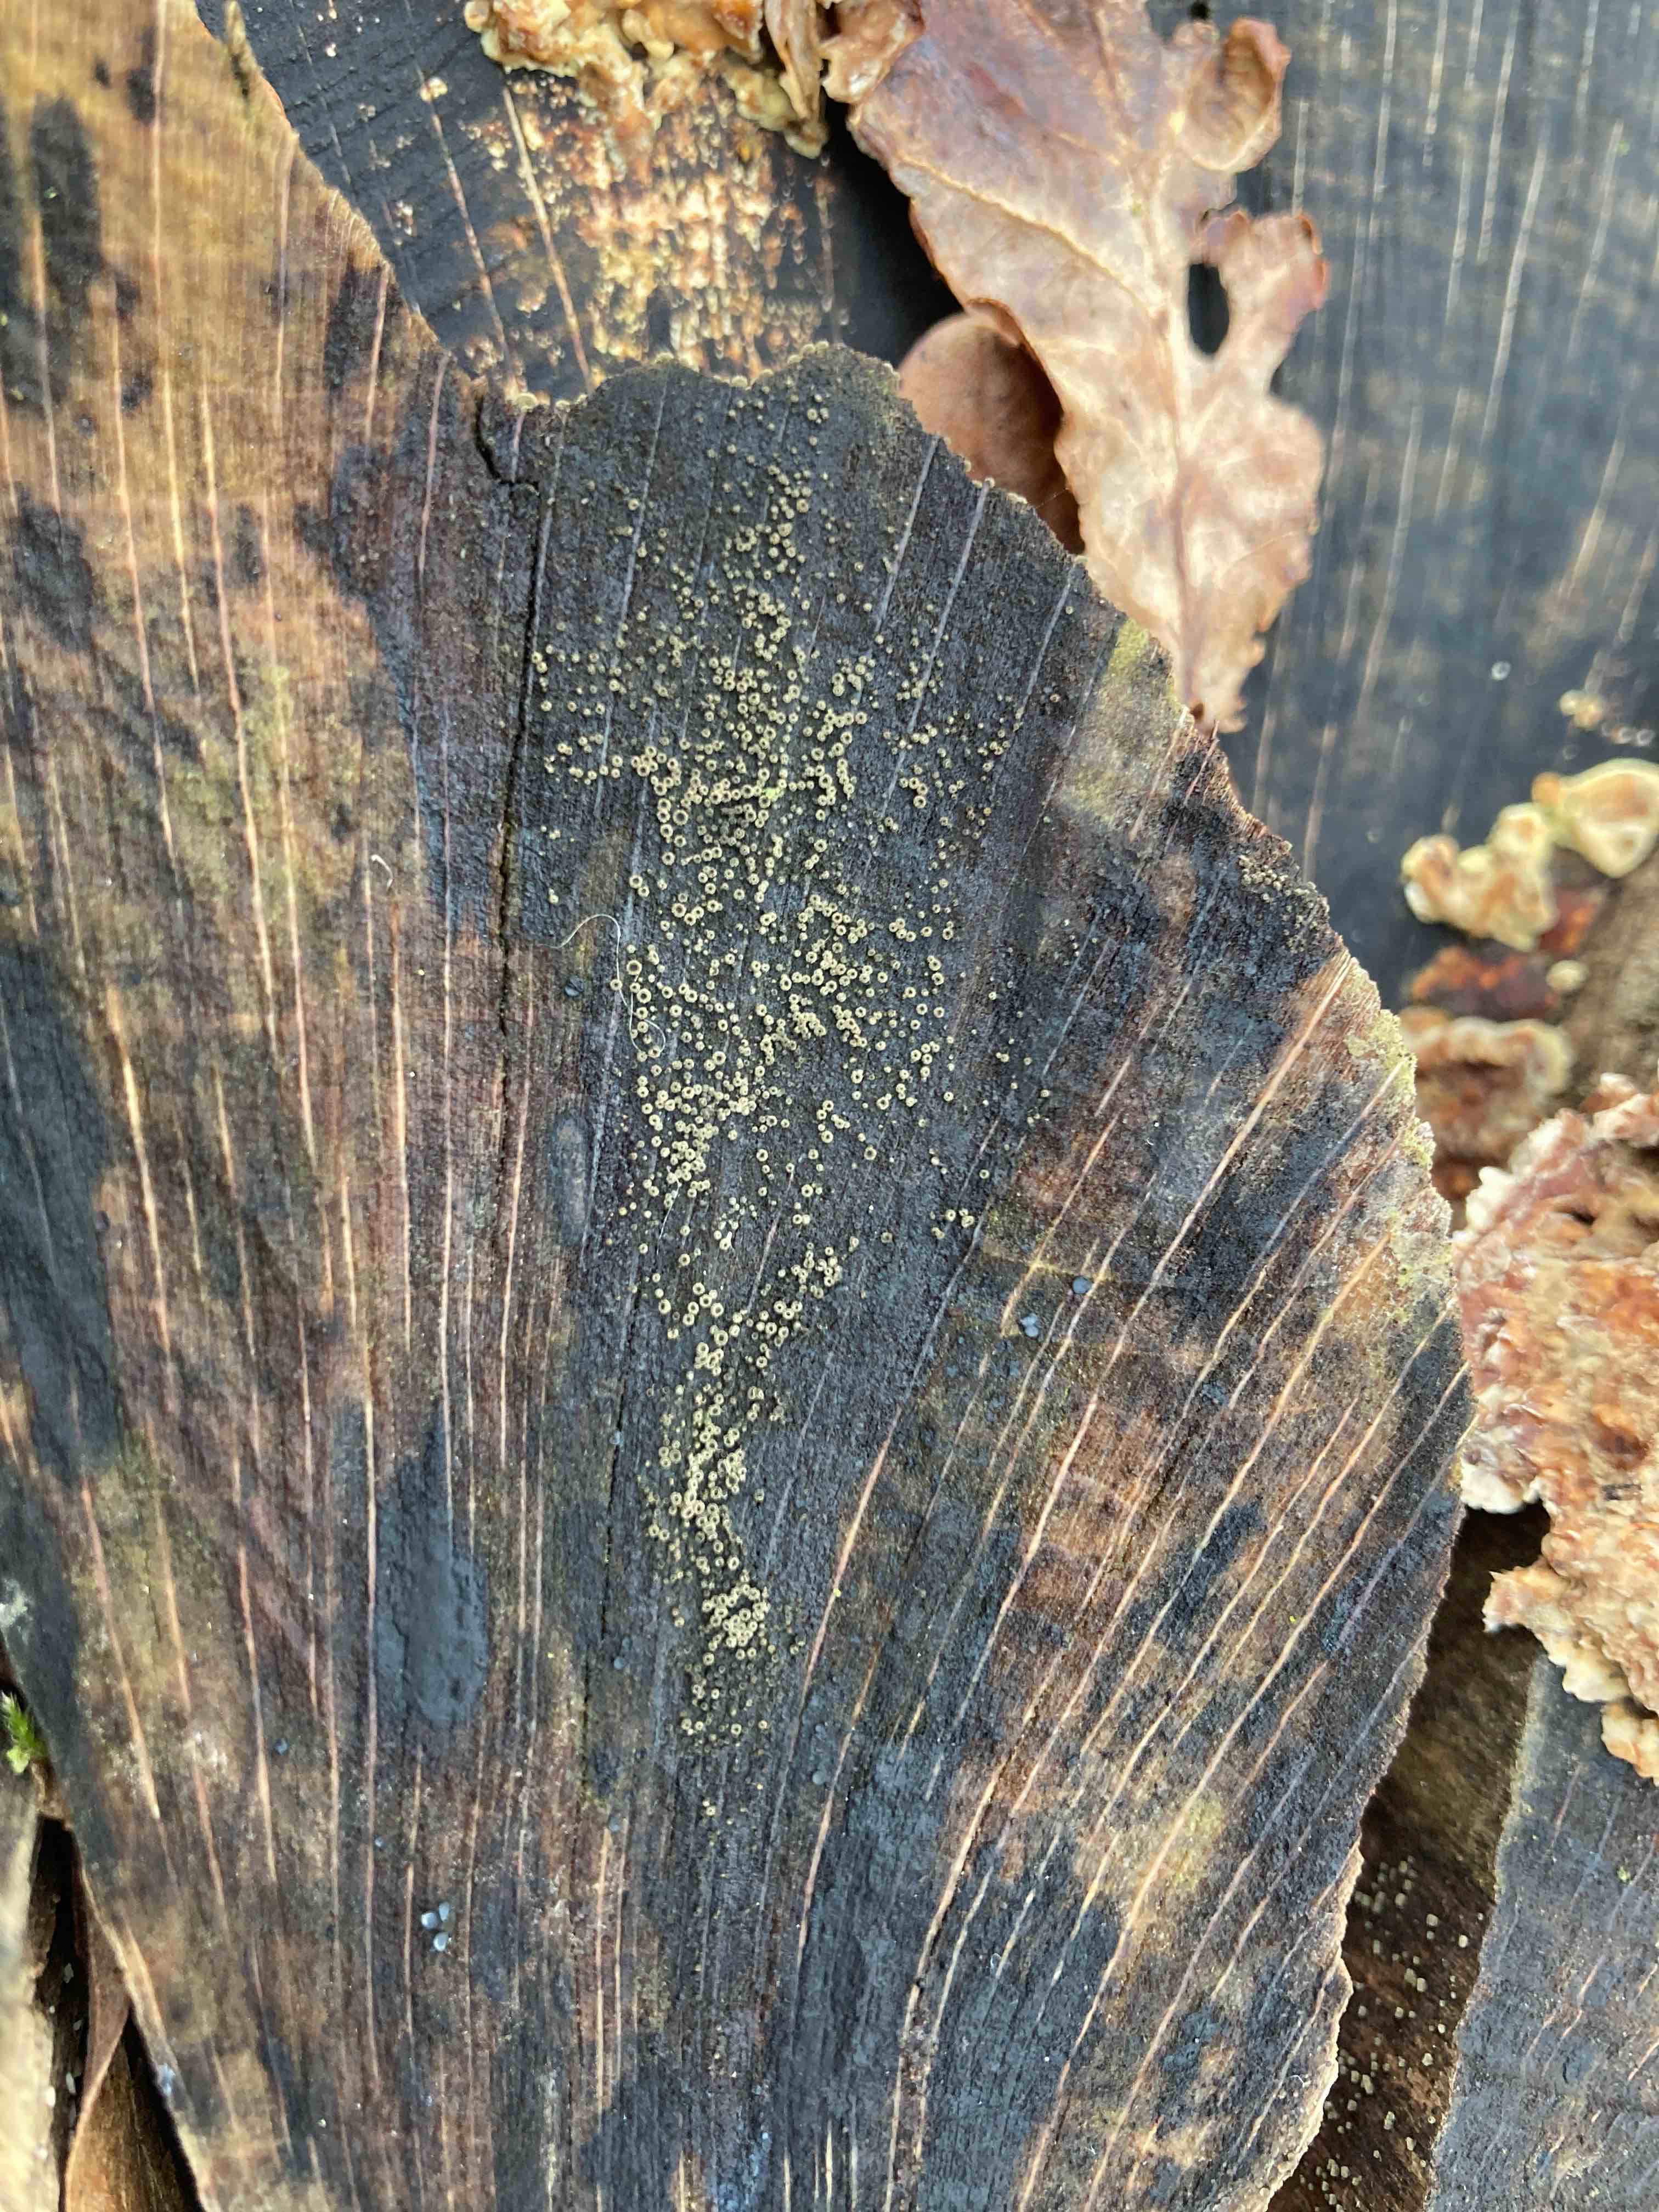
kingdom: Fungi
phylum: Ascomycota
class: Leotiomycetes
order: Helotiales
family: Lachnaceae
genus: Neodasyscypha
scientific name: Neodasyscypha cerina
